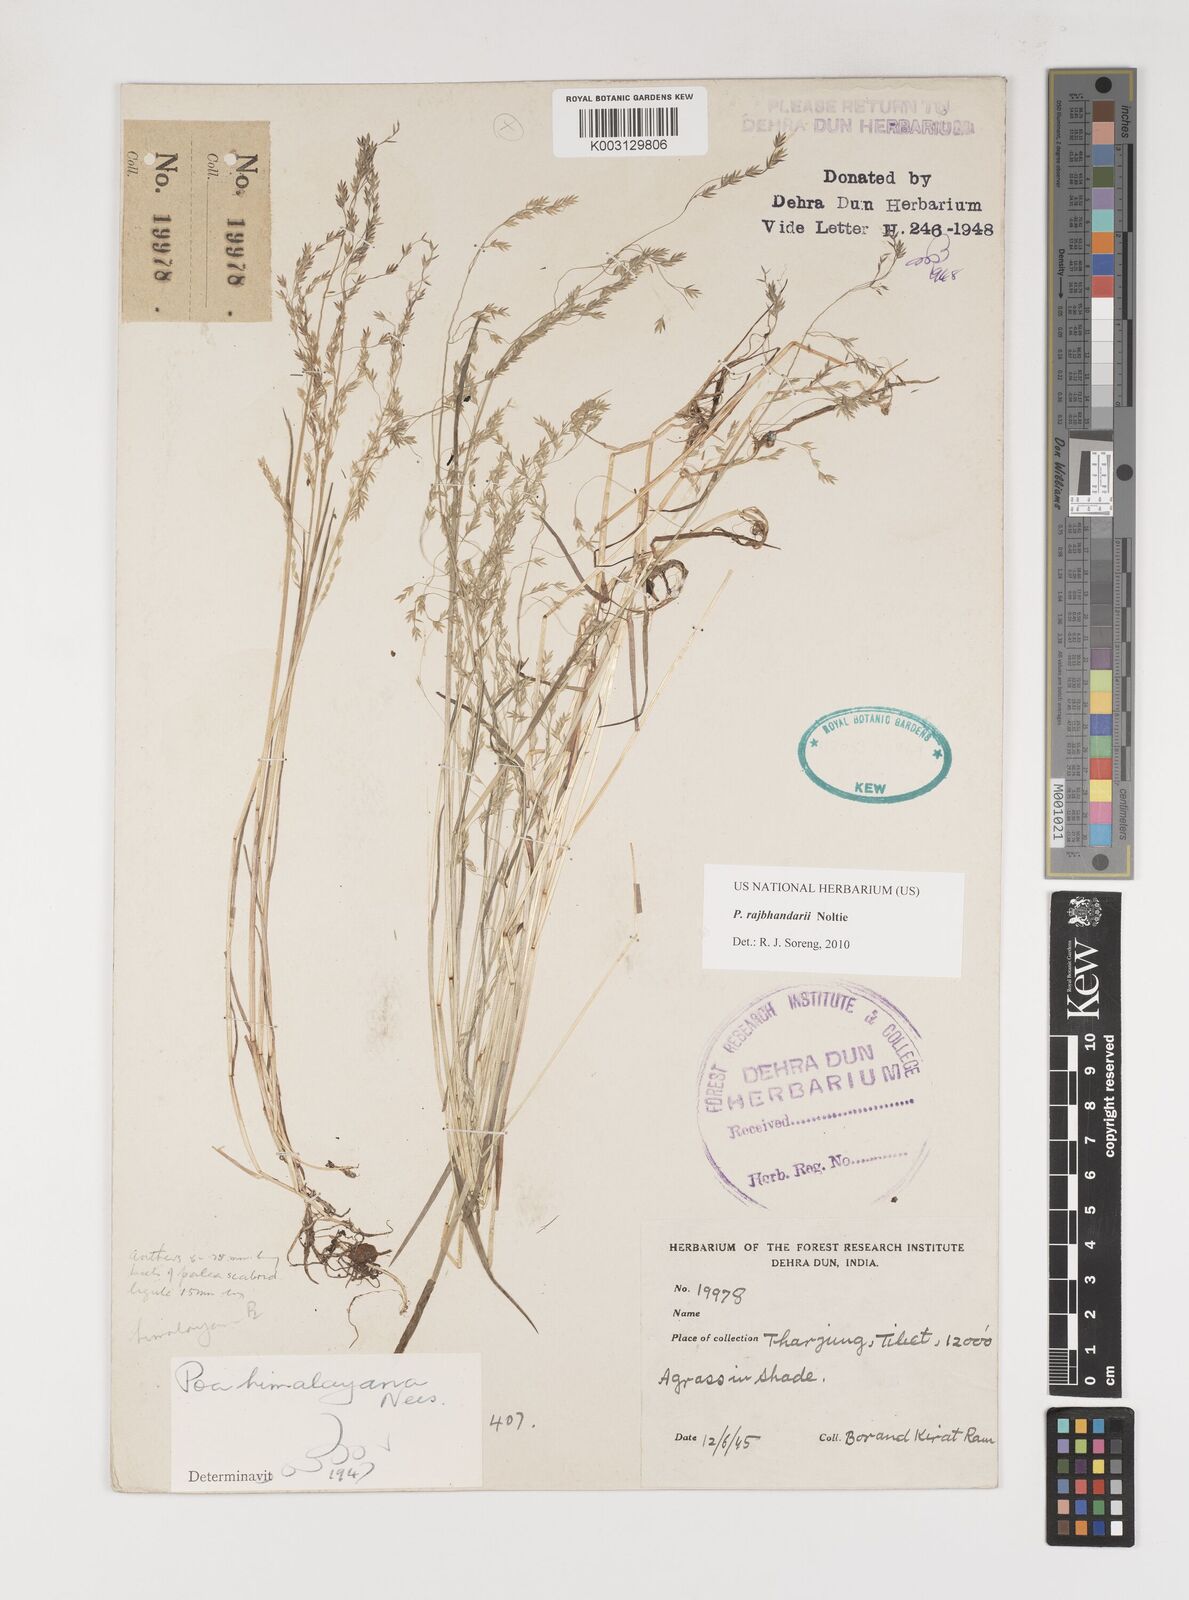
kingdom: Plantae
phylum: Tracheophyta
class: Liliopsida
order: Poales
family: Poaceae
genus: Poa
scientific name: Poa rajbhandarii
